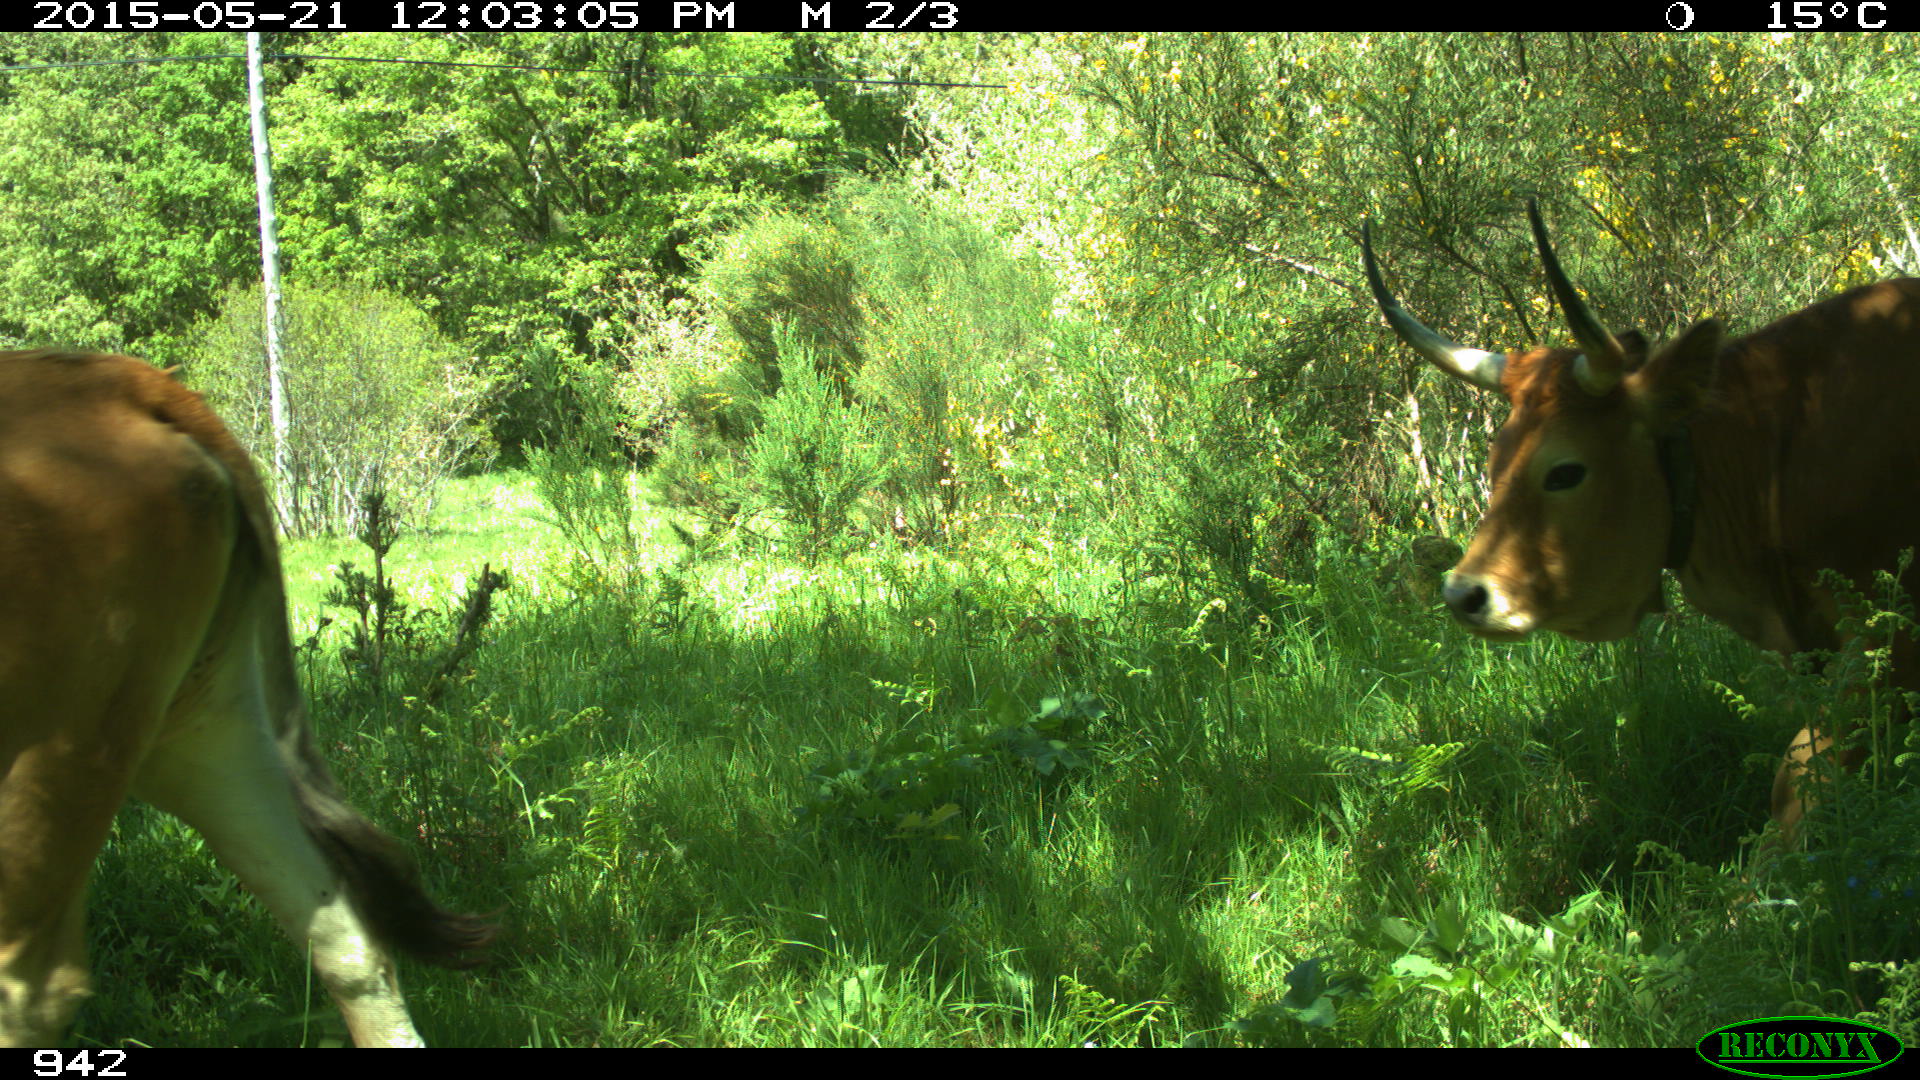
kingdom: Animalia
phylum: Chordata
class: Mammalia
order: Artiodactyla
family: Bovidae
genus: Bos
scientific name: Bos taurus
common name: Domesticated cattle
